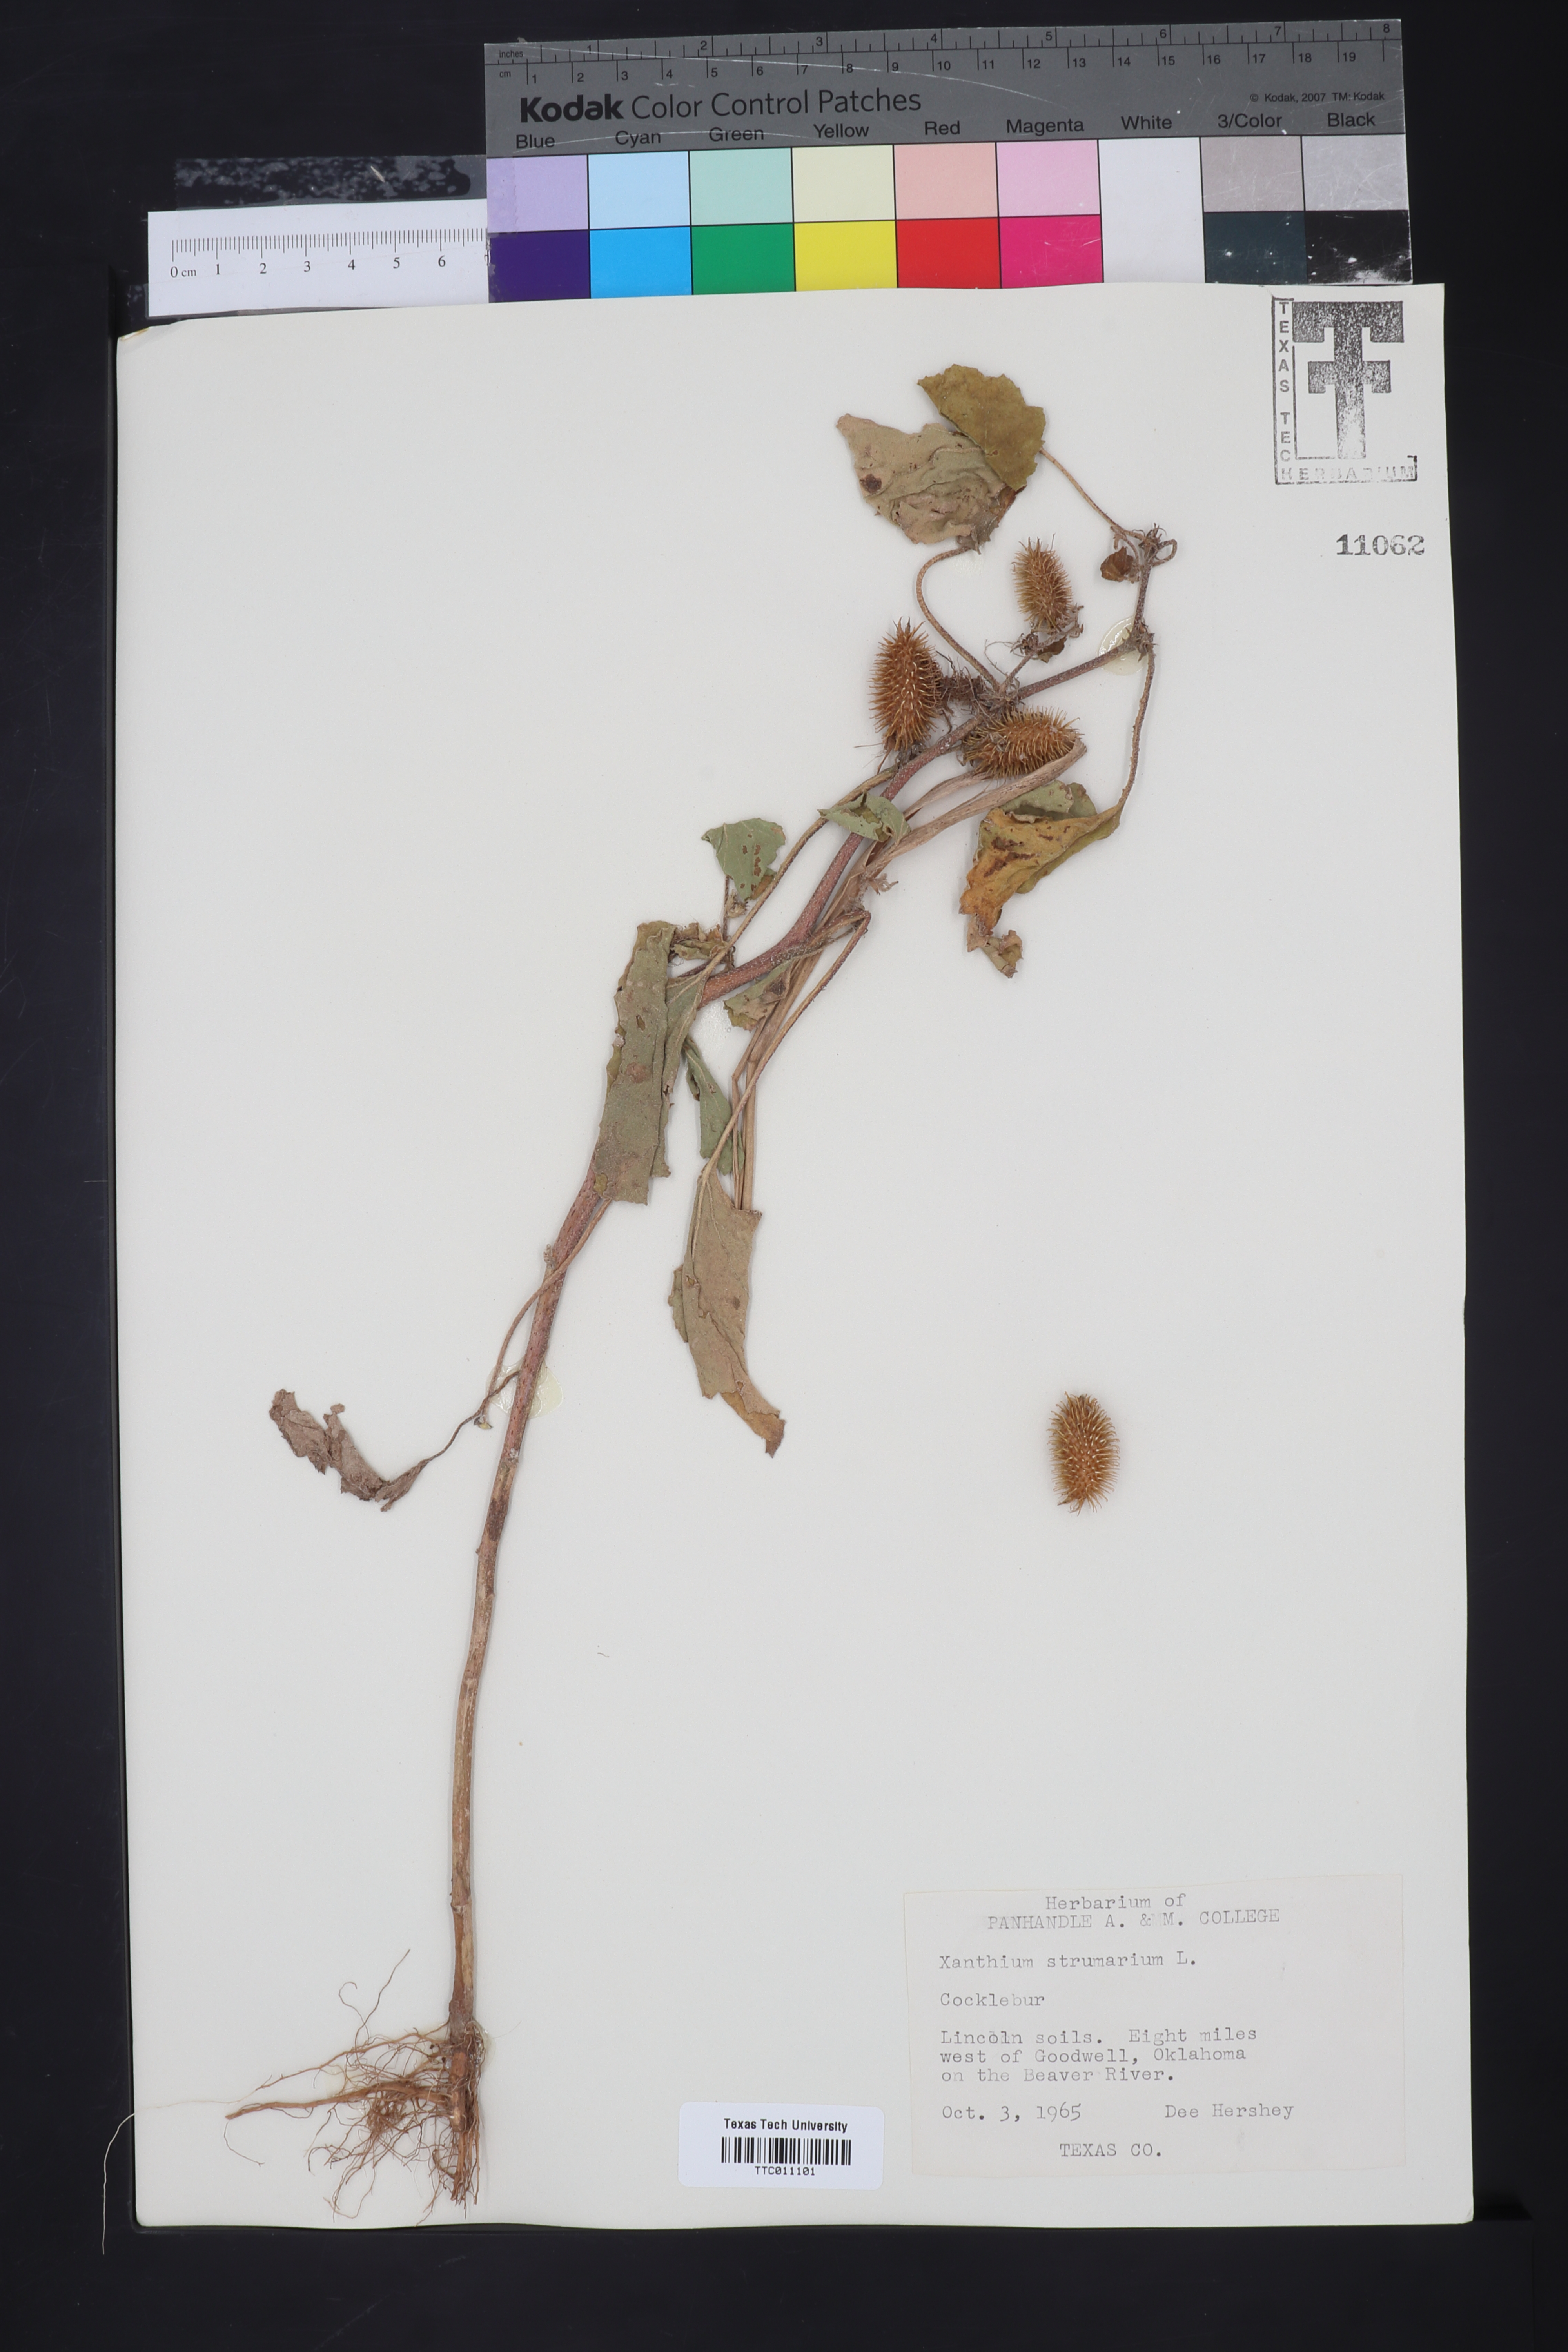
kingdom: Plantae
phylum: Tracheophyta
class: Magnoliopsida
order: Asterales
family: Asteraceae
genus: Xanthium
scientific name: Xanthium strumarium
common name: Rough cocklebur
